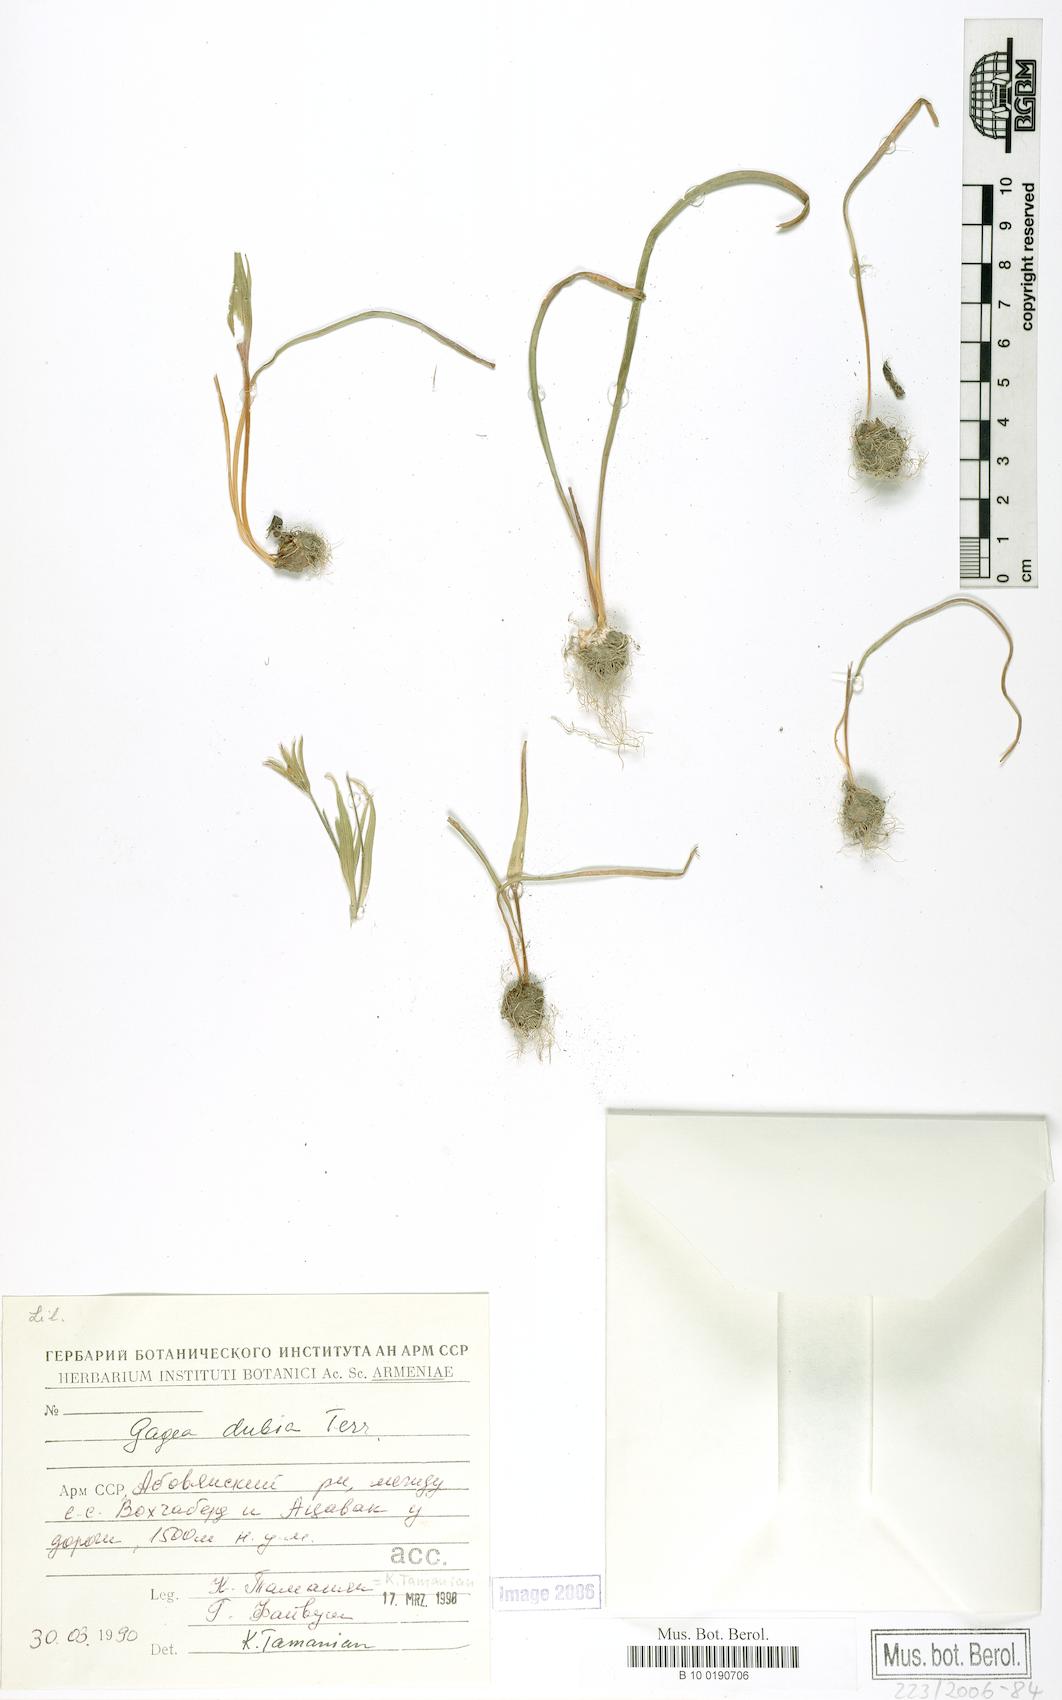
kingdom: Plantae
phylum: Tracheophyta
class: Liliopsida
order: Liliales
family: Liliaceae
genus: Gagea
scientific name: Gagea dubia
